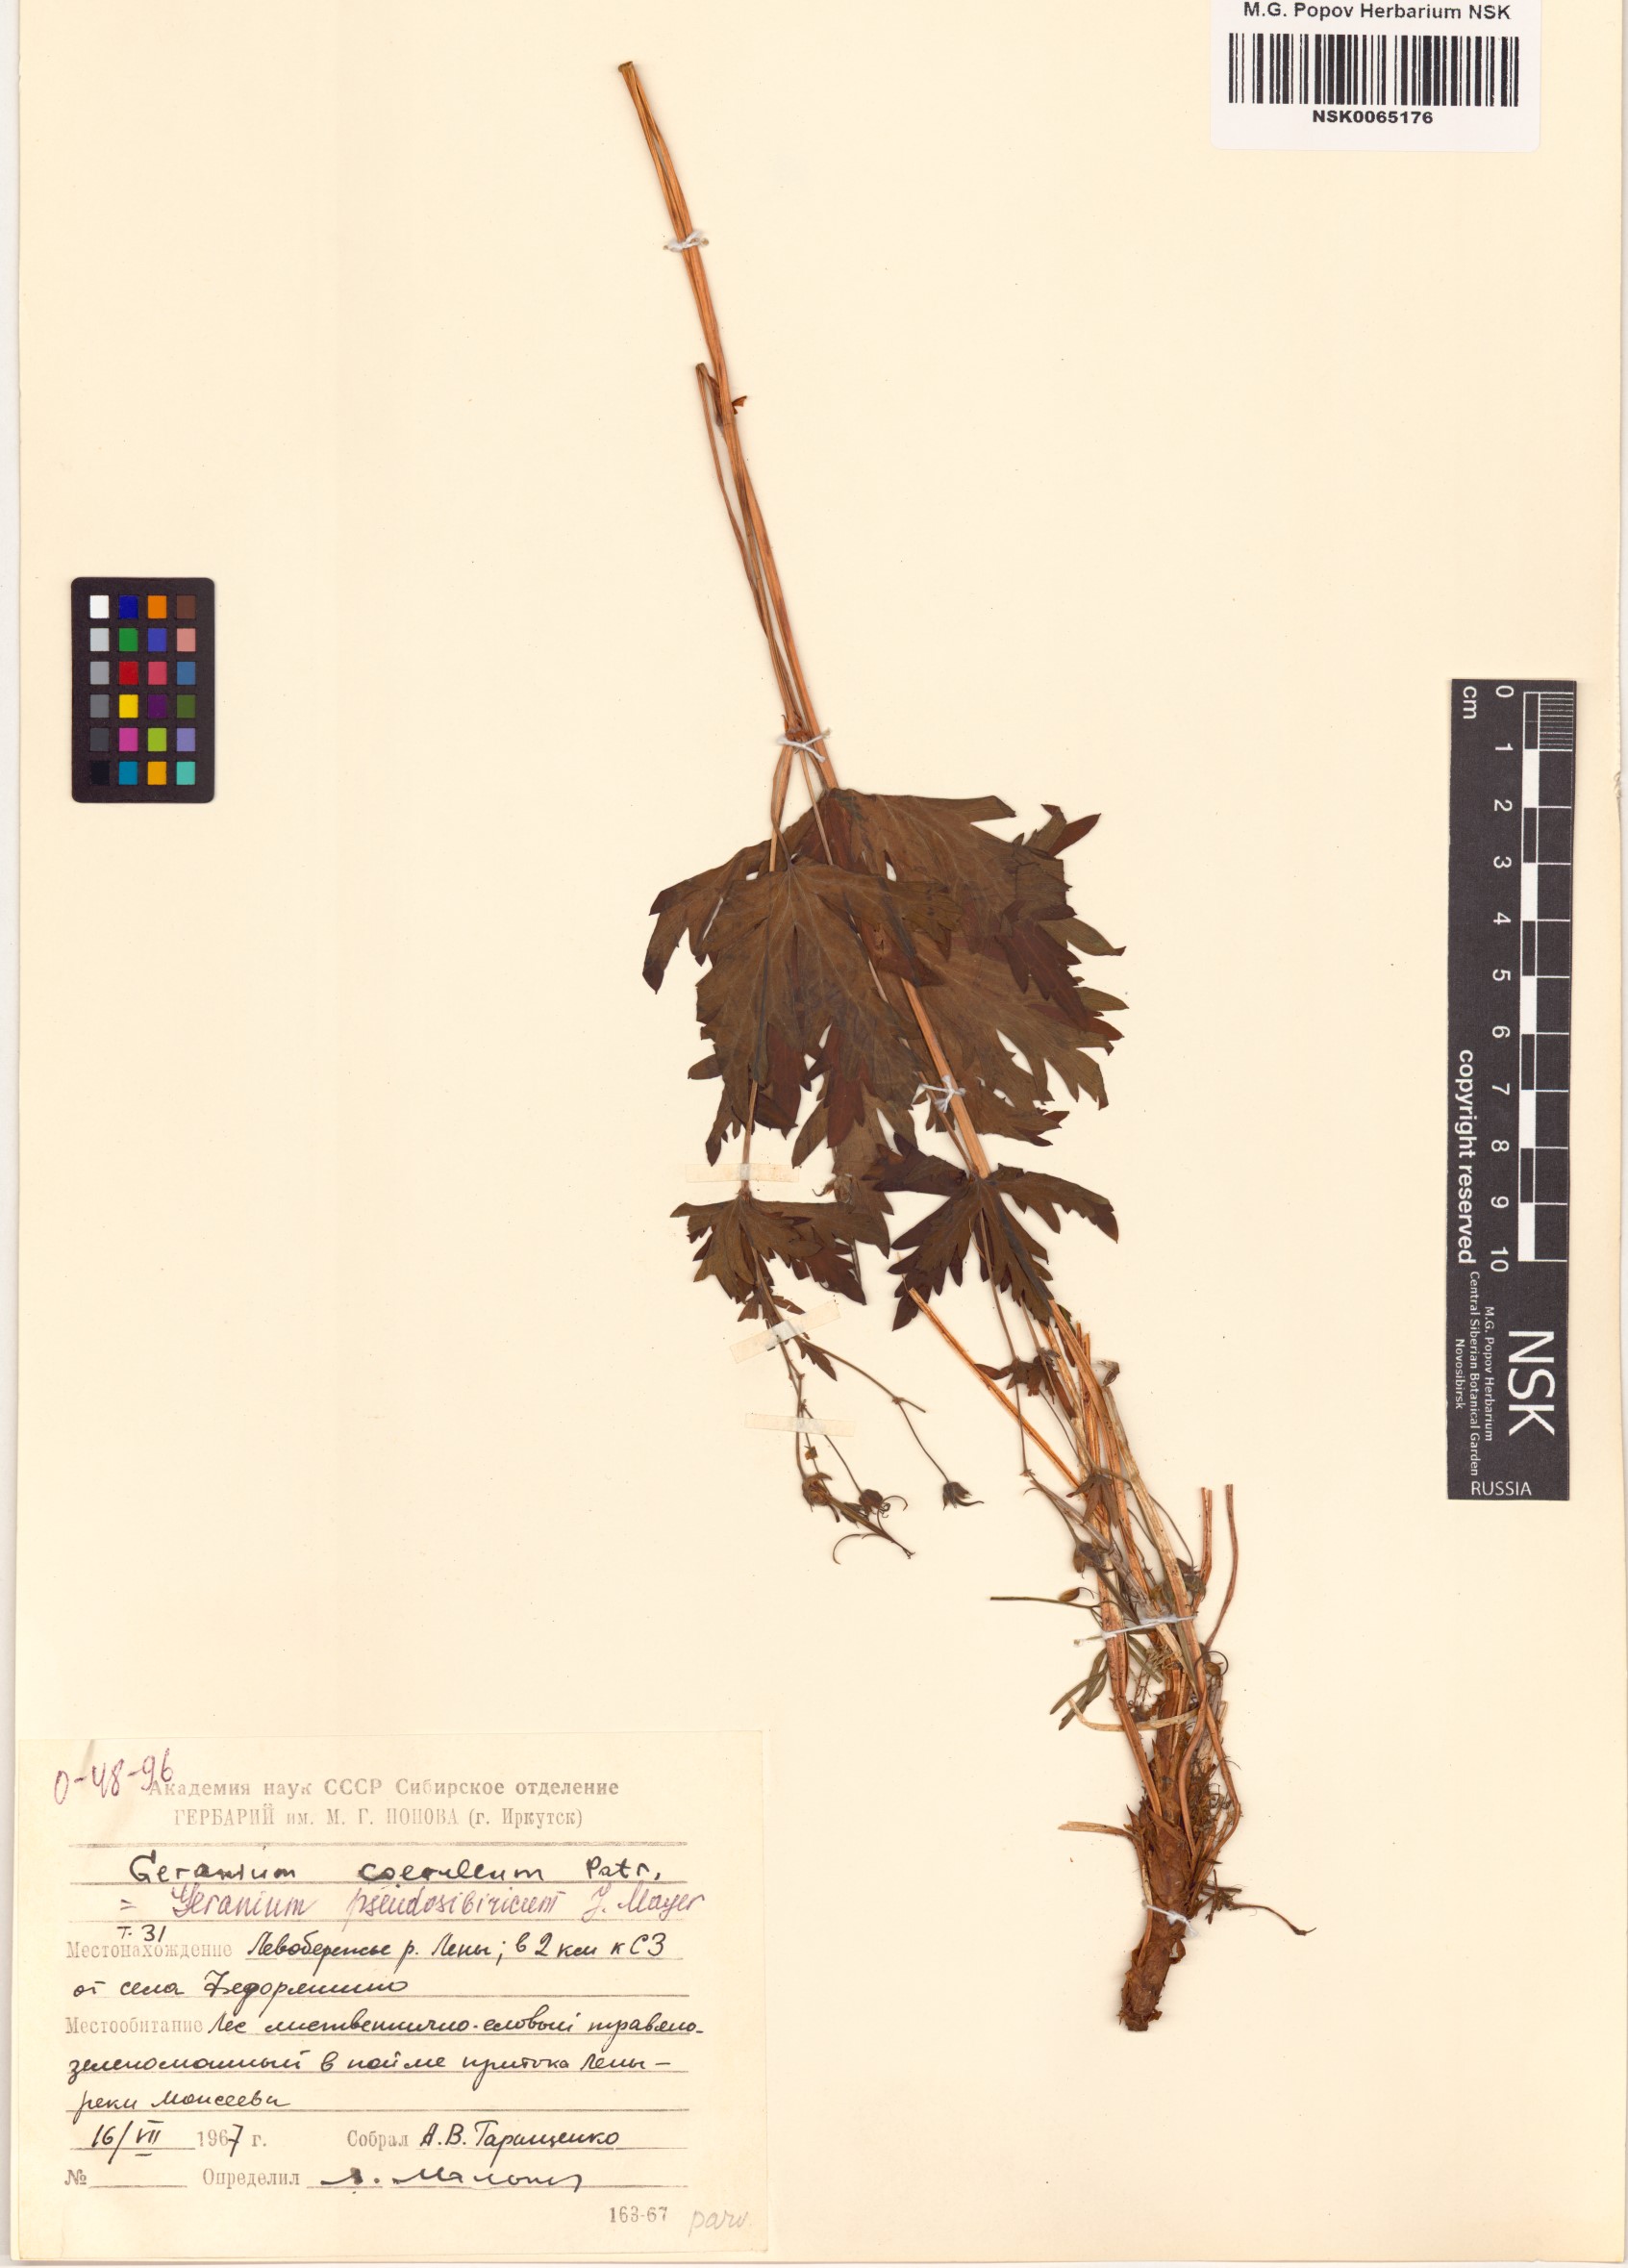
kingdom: Plantae
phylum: Tracheophyta
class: Magnoliopsida
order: Geraniales
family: Geraniaceae
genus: Geranium
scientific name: Geranium pseudosibiricum
